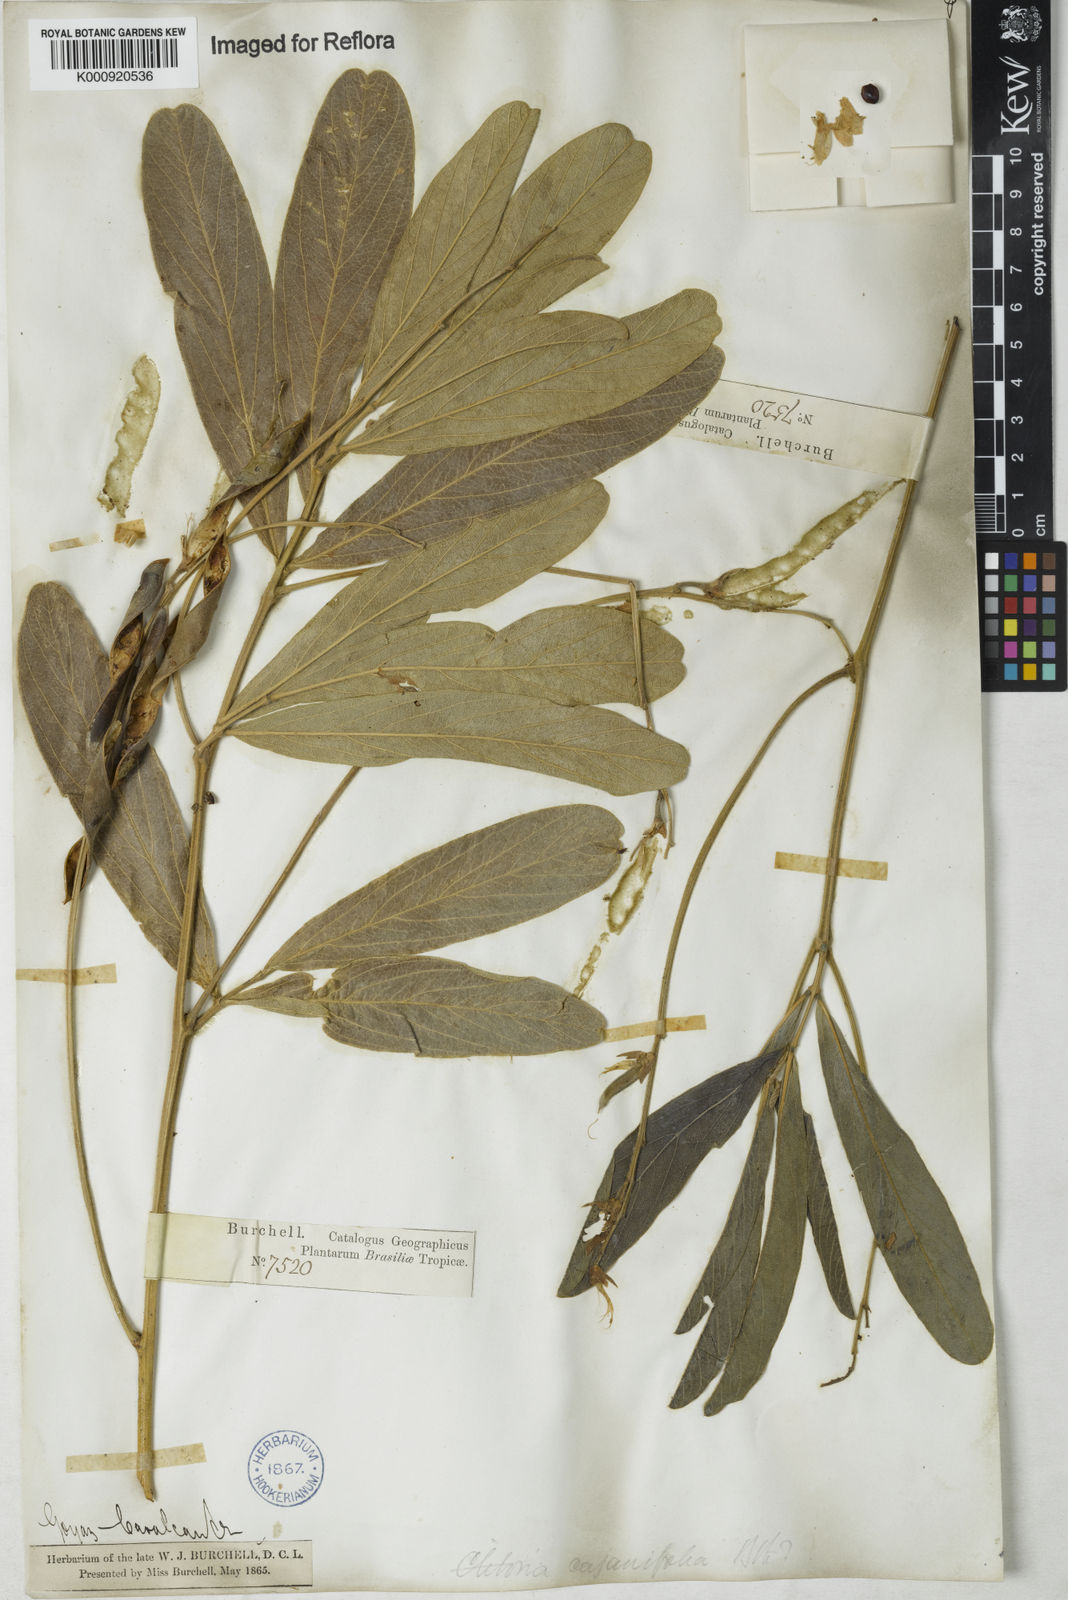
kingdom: Plantae
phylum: Tracheophyta
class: Magnoliopsida
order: Fabales
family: Fabaceae
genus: Clitoria
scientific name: Clitoria laurifolia
